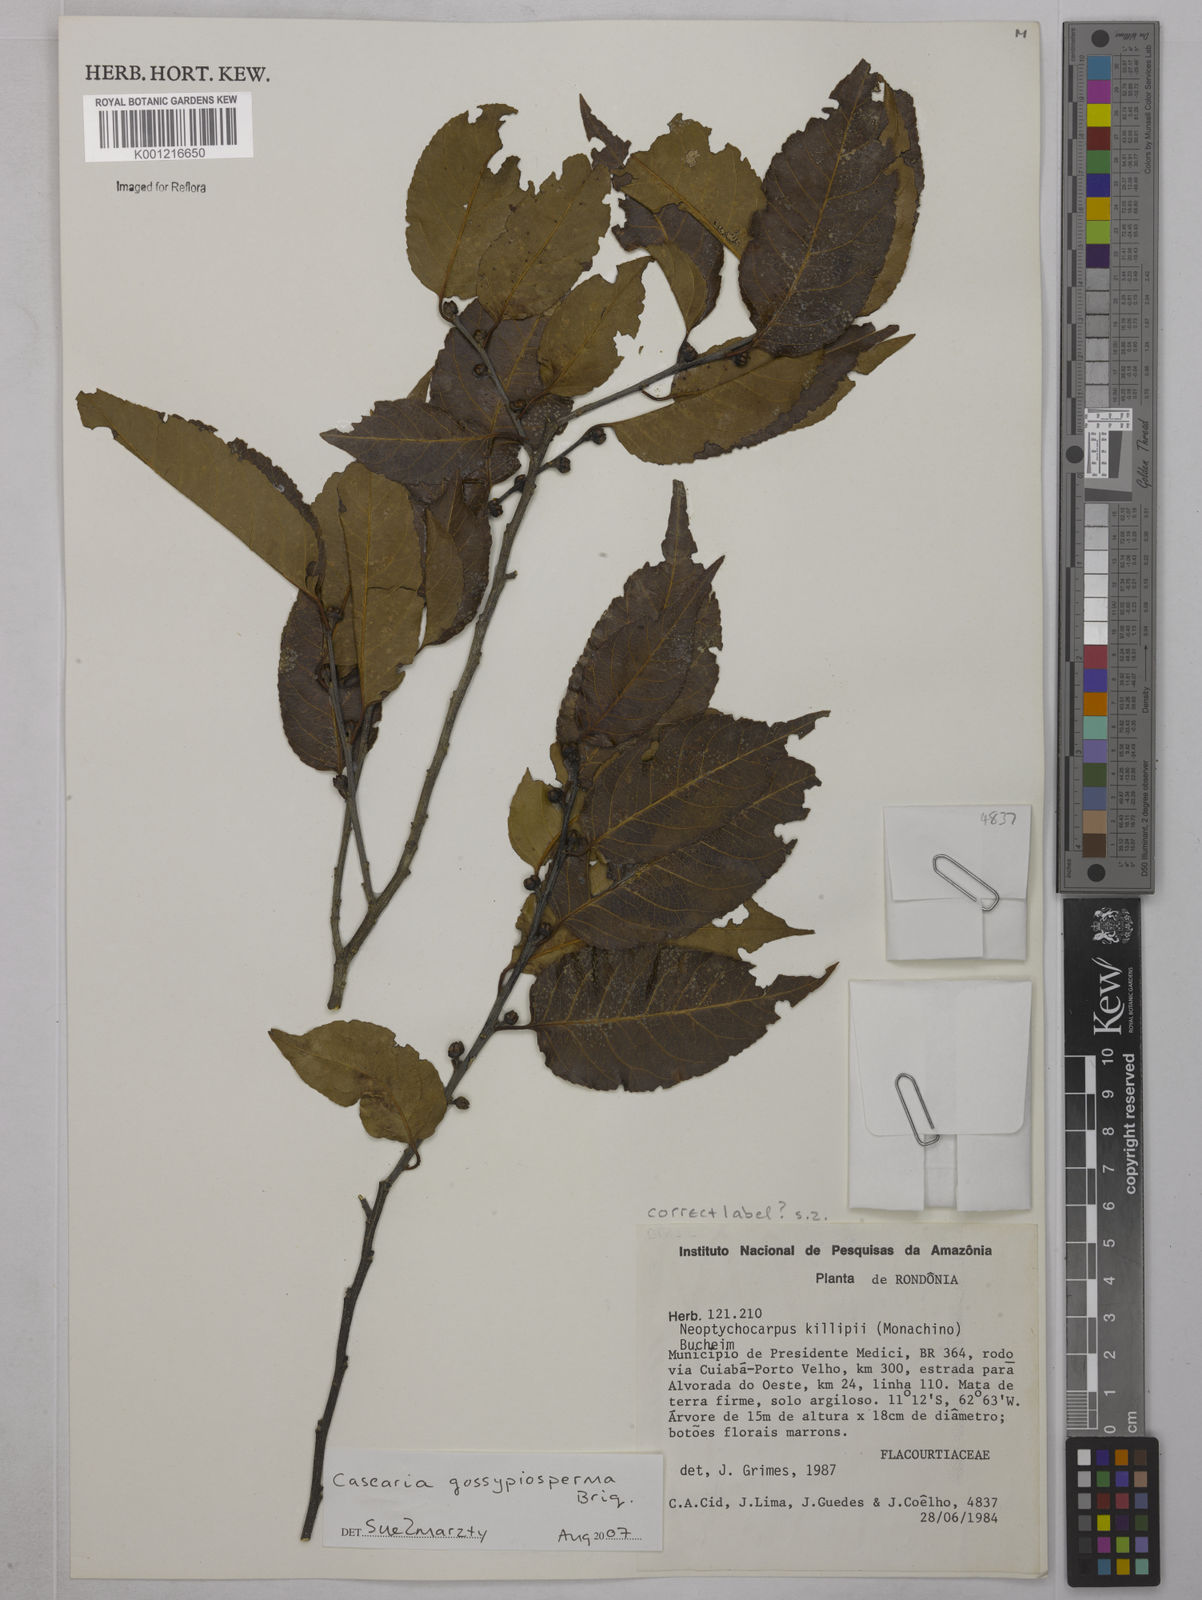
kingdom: Plantae
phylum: Tracheophyta
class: Magnoliopsida
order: Malpighiales
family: Salicaceae
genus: Casearia
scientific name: Casearia gossypiosperma
